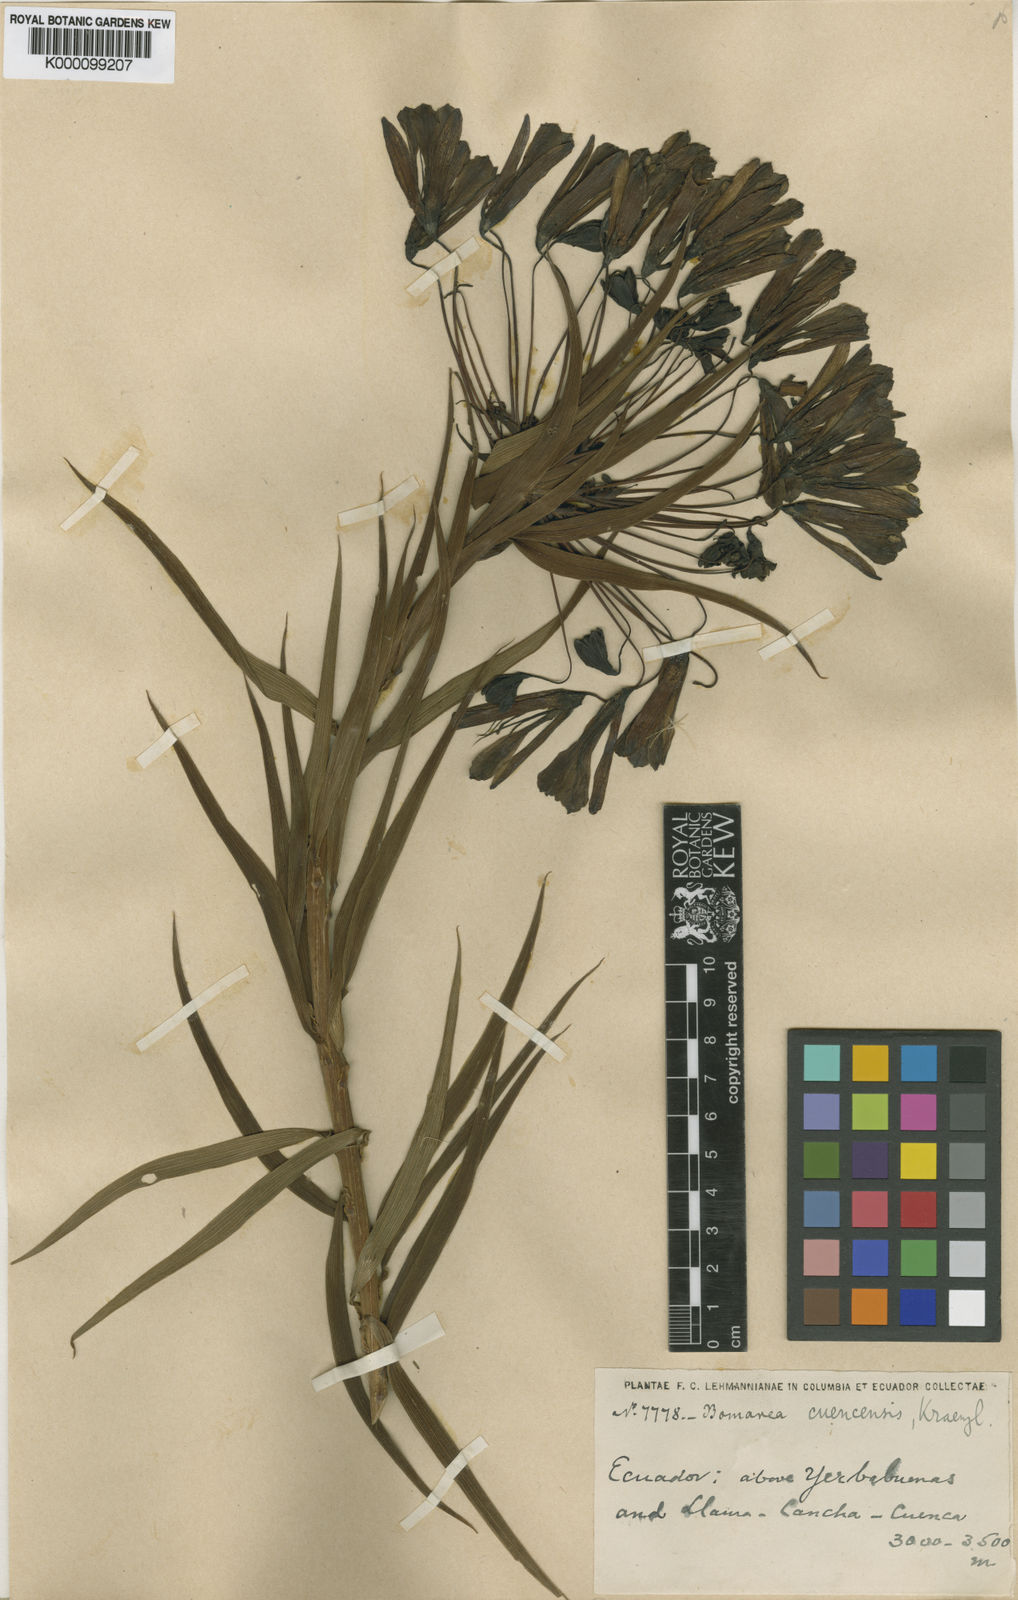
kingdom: Plantae
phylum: Tracheophyta
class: Liliopsida
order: Liliales
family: Alstroemeriaceae
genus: Bomarea
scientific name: Bomarea angulata
